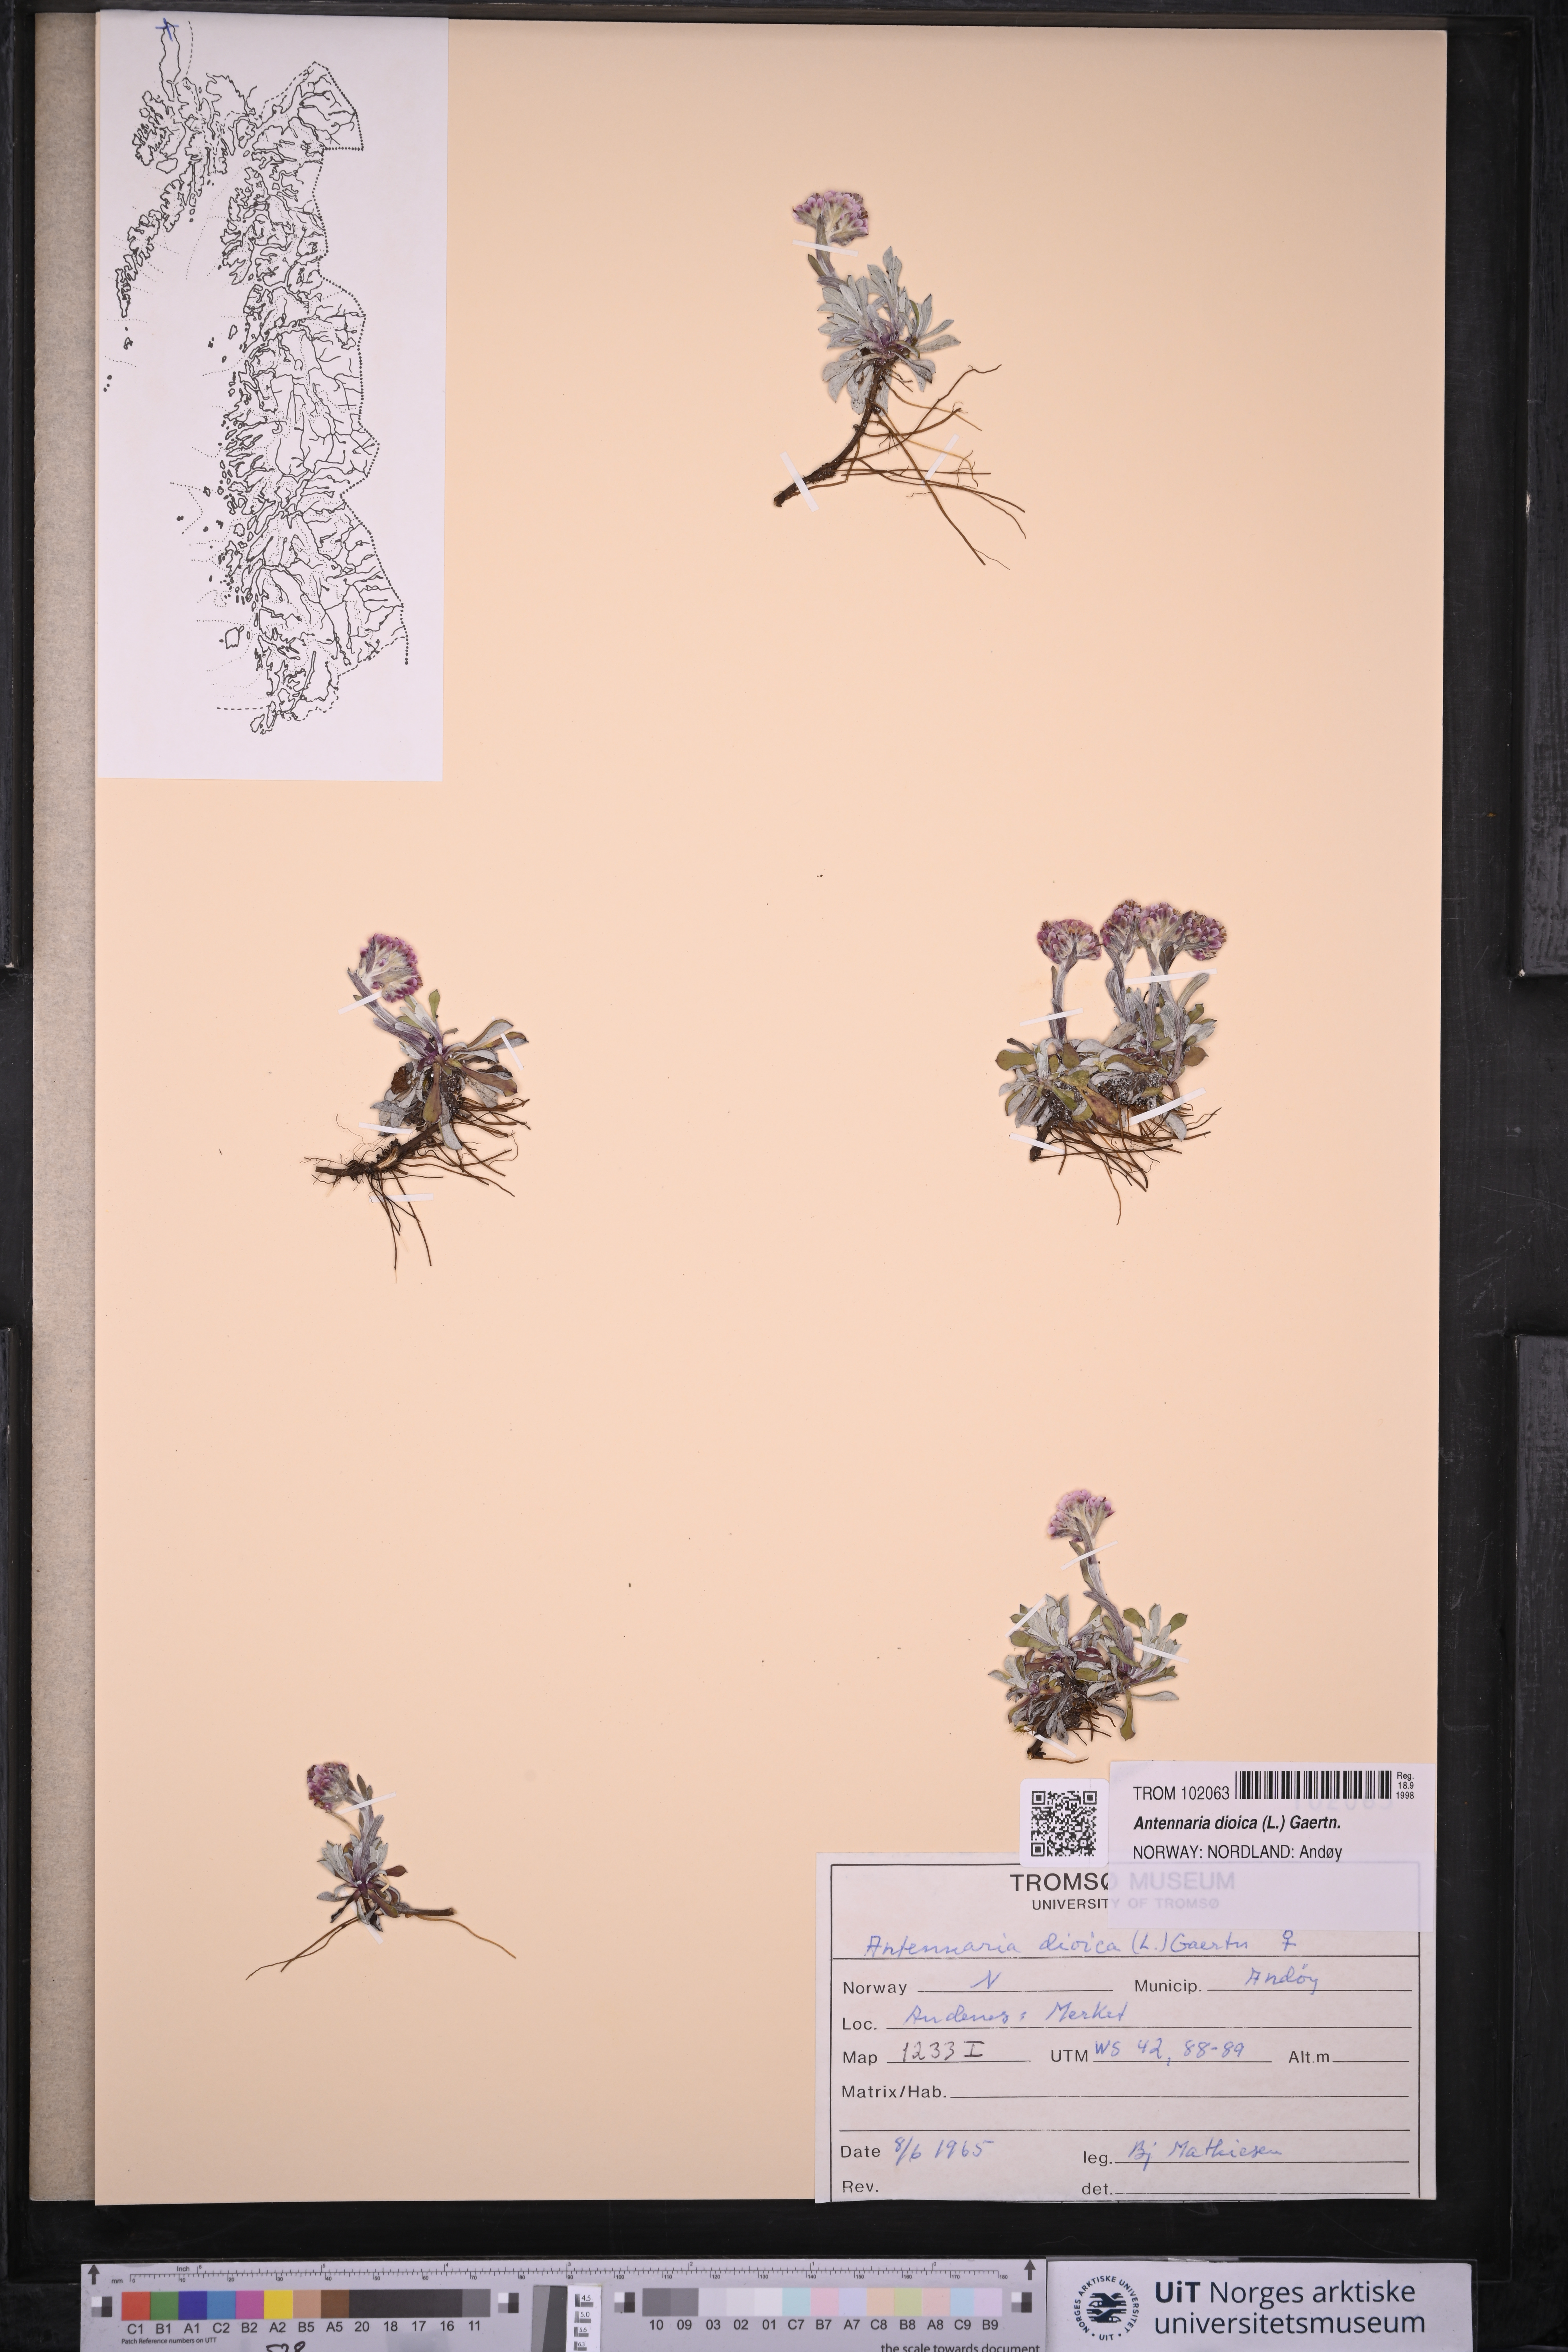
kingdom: Plantae
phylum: Tracheophyta
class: Magnoliopsida
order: Asterales
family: Asteraceae
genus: Antennaria
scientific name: Antennaria dioica
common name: Mountain everlasting
